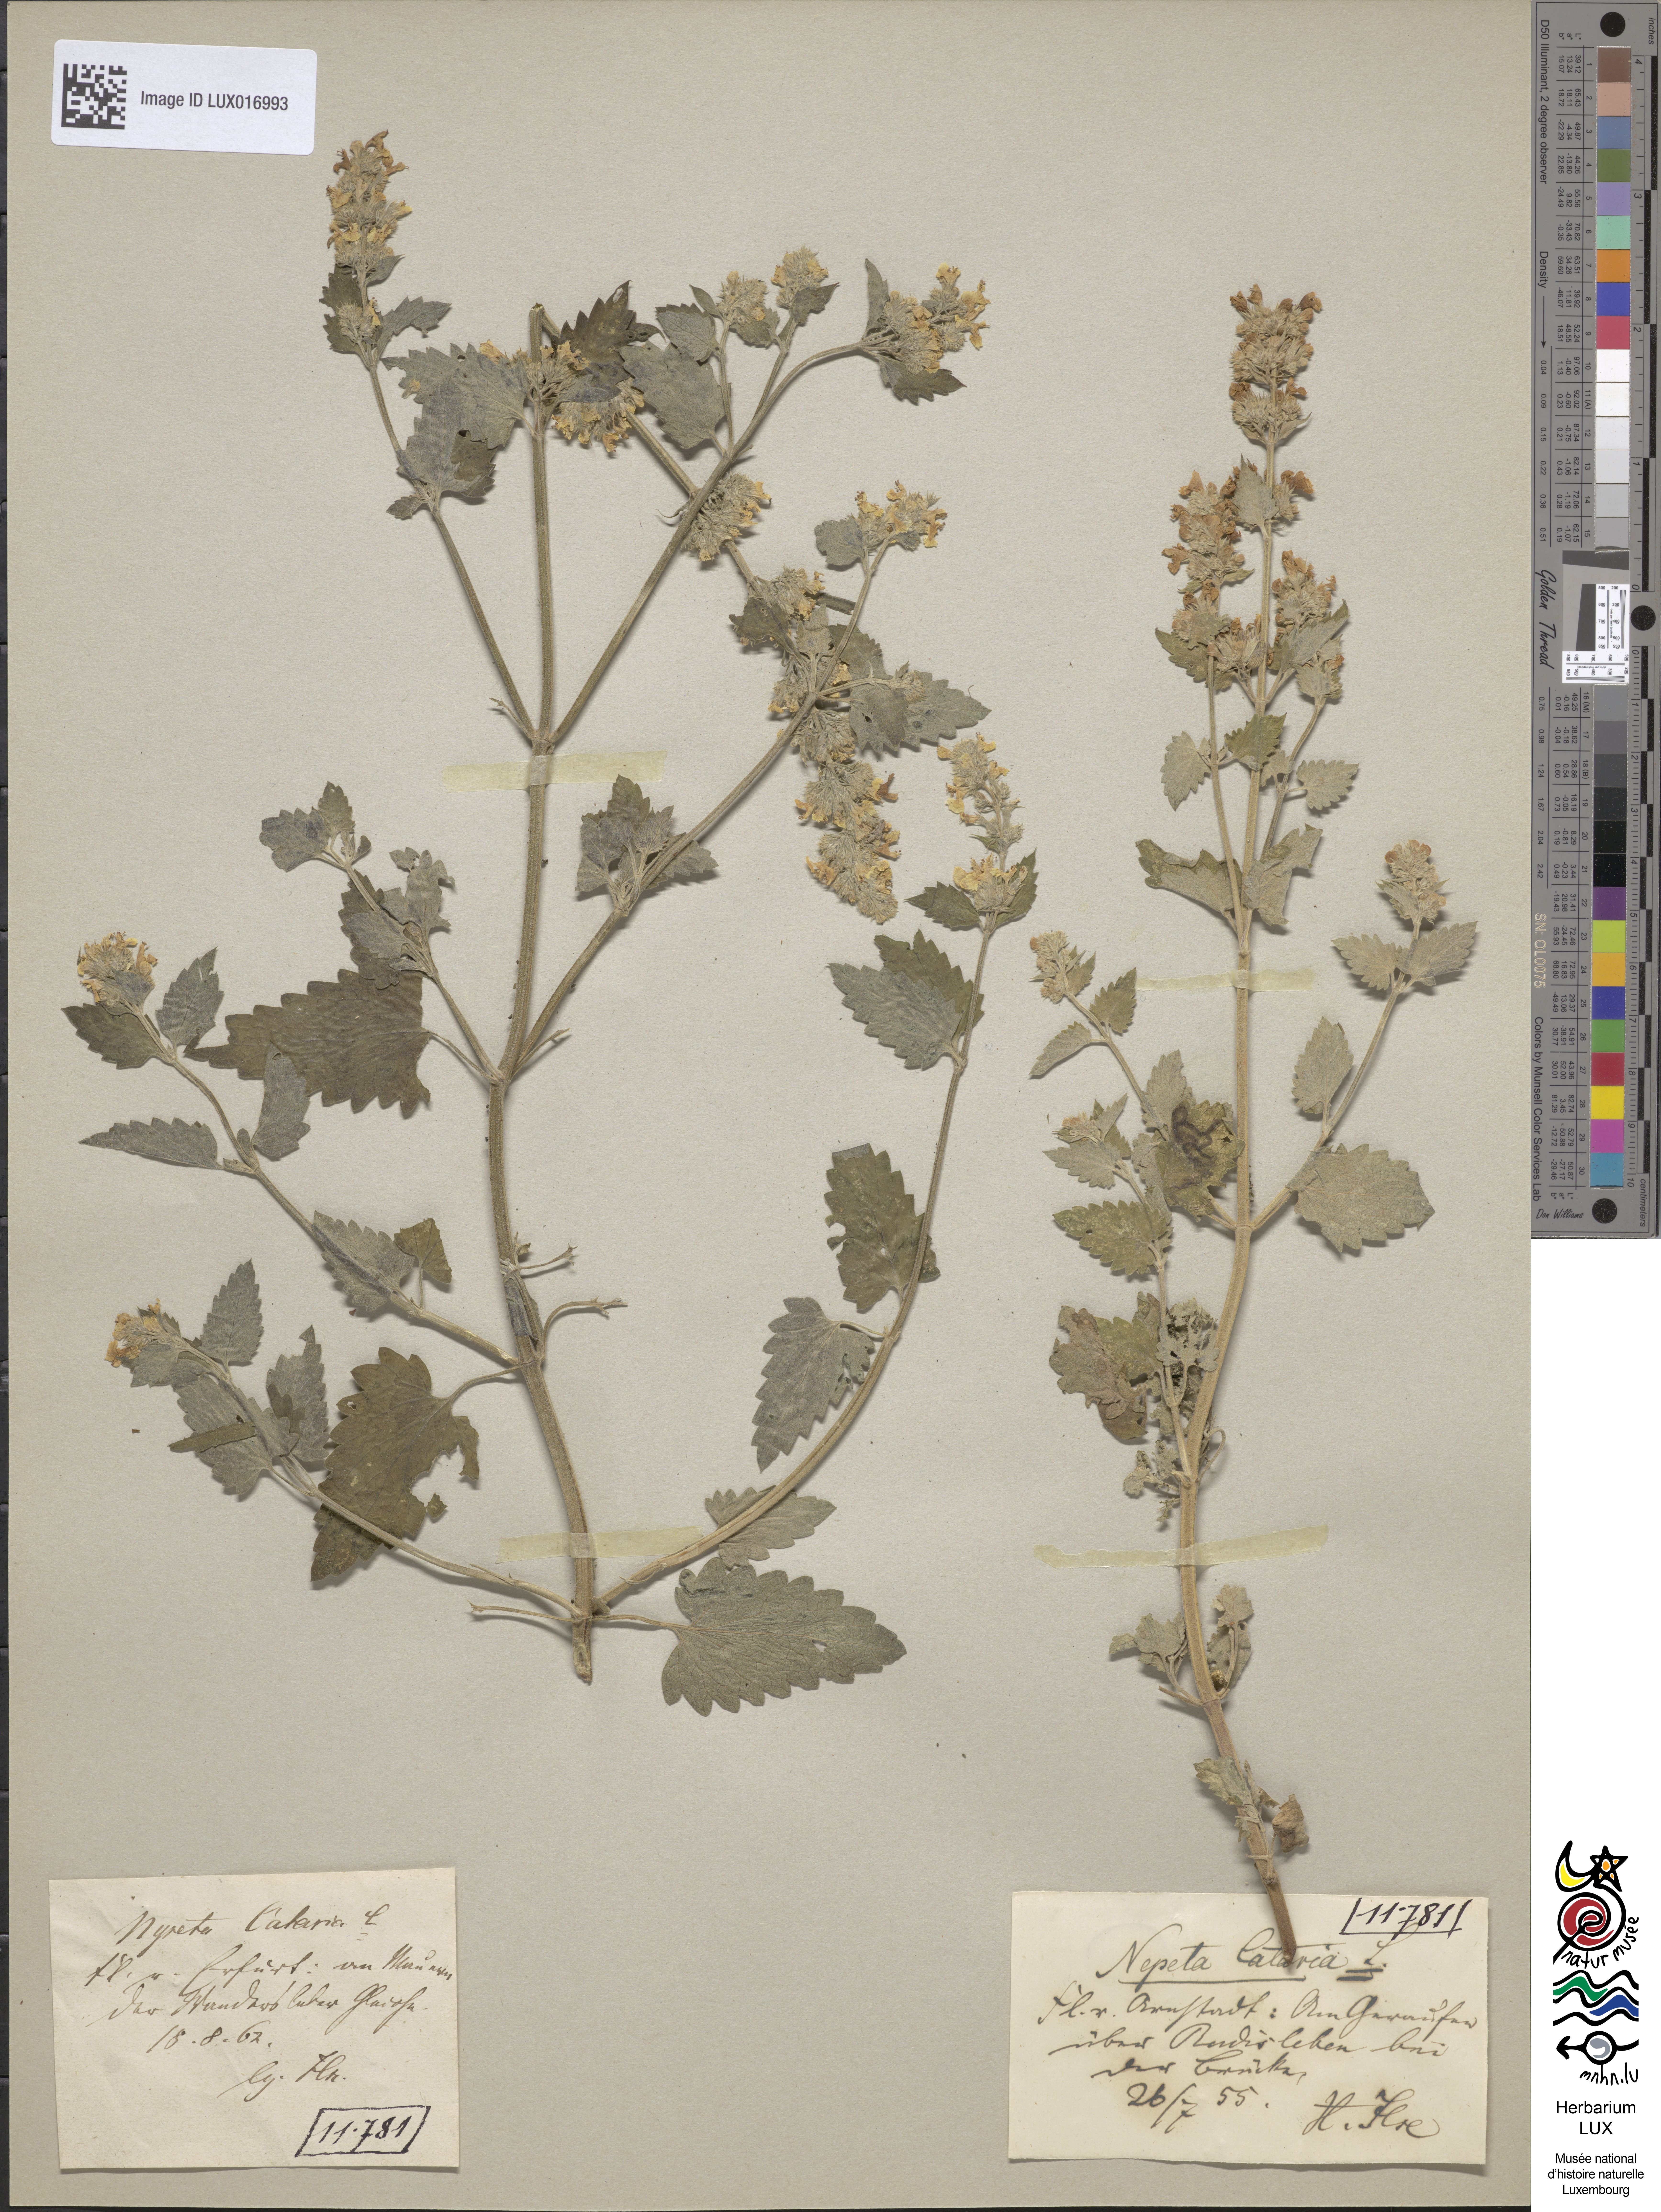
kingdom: Plantae
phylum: Tracheophyta
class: Magnoliopsida
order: Lamiales
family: Lamiaceae
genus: Nepeta
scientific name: Nepeta cataria
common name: Catnip
